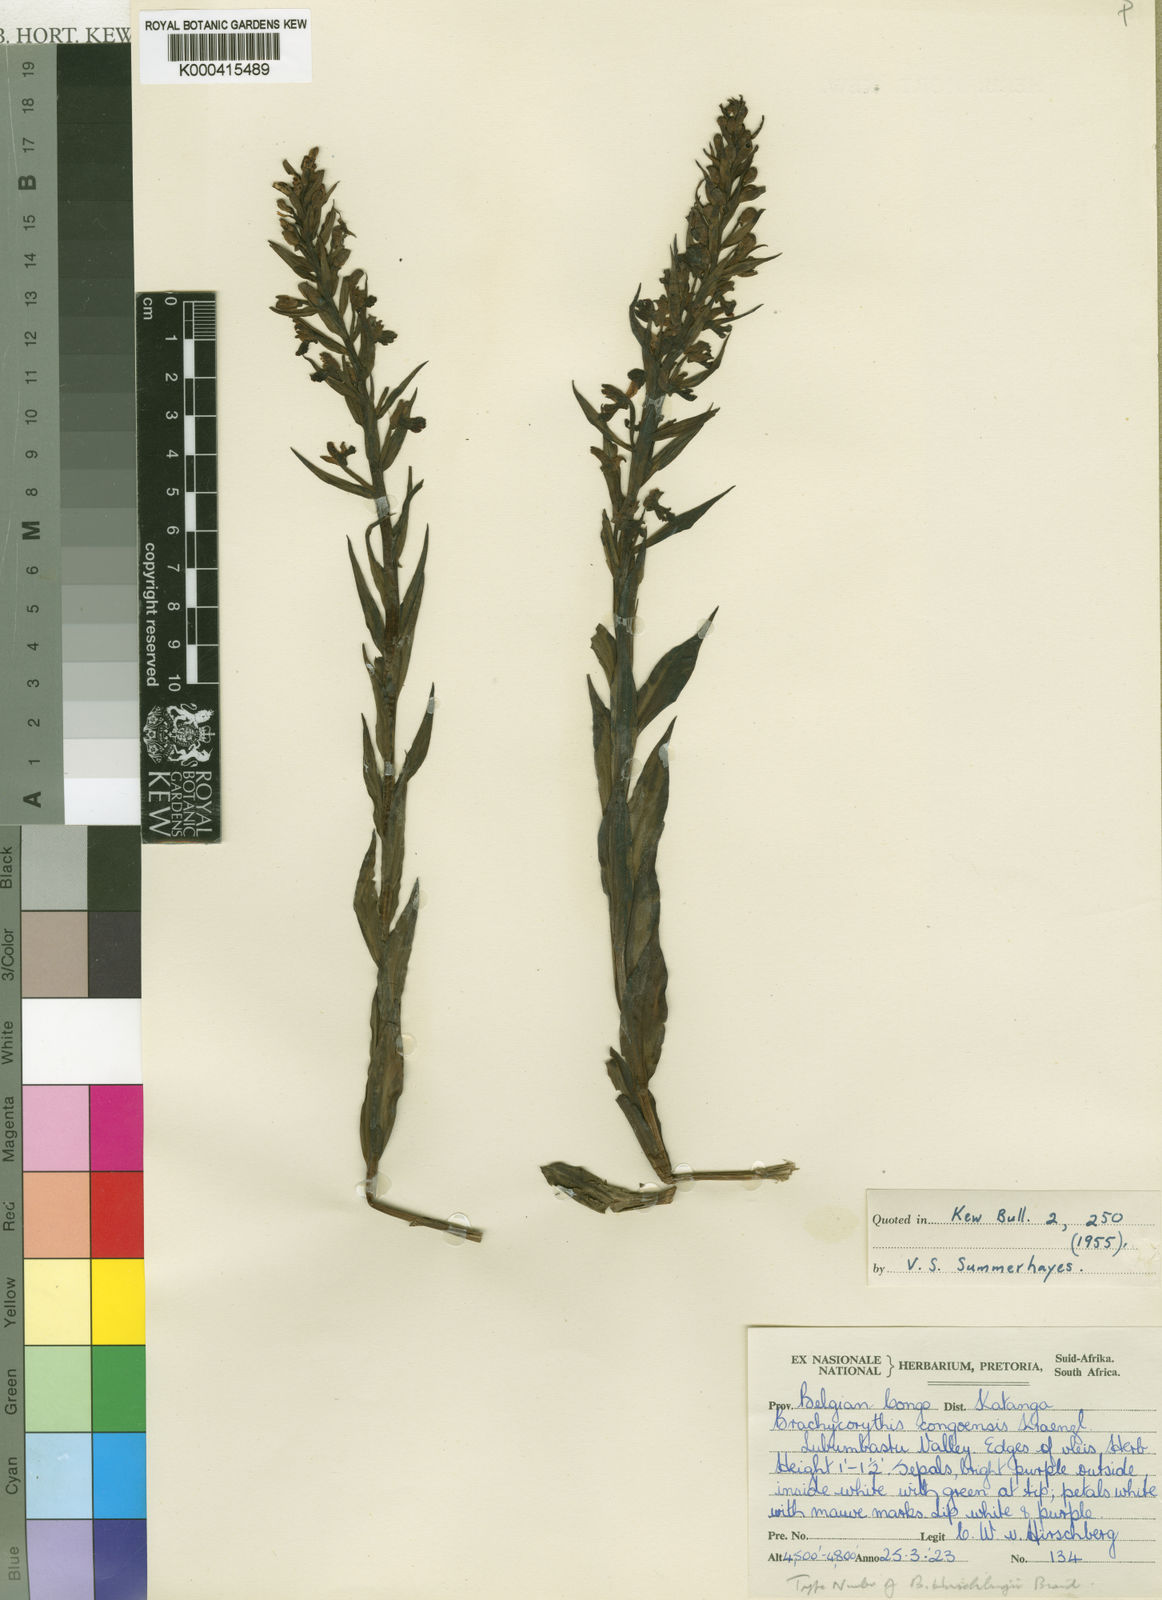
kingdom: Plantae
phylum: Tracheophyta
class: Liliopsida
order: Asparagales
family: Orchidaceae
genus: Brachycorythis
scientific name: Brachycorythis congoensis
